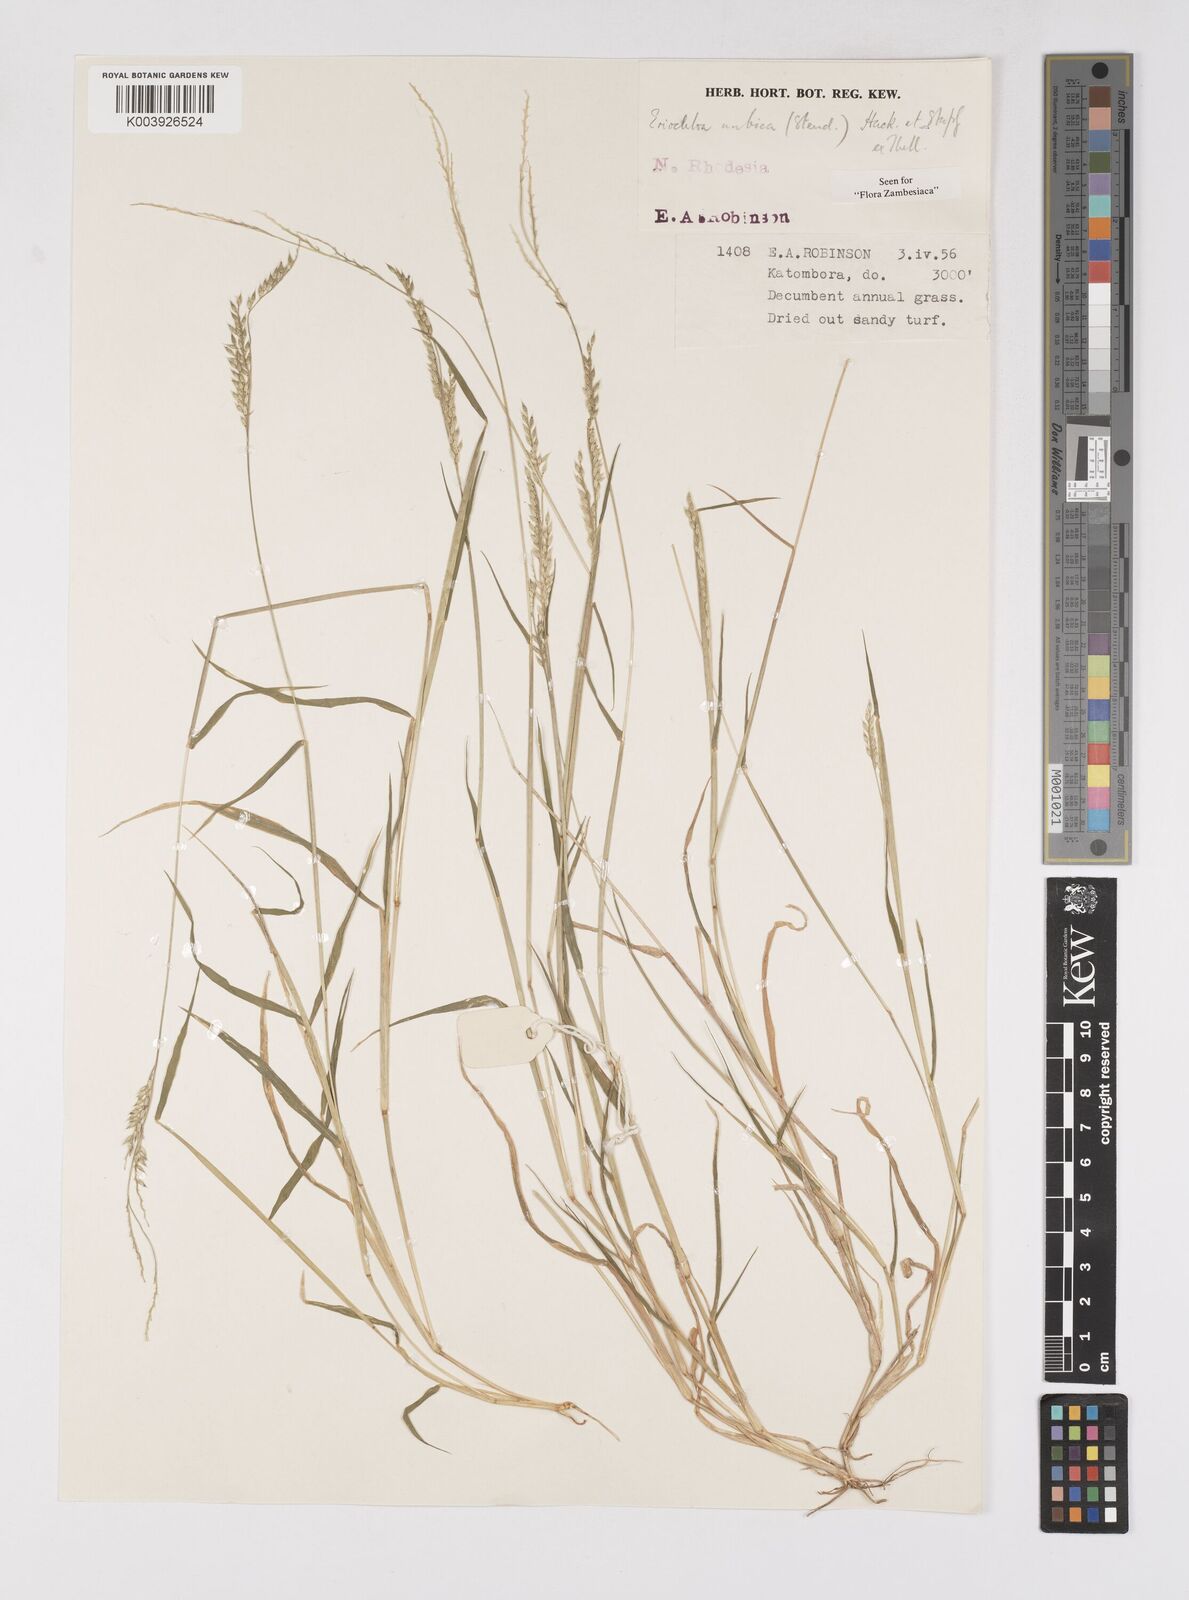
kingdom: Plantae
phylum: Tracheophyta
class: Liliopsida
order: Poales
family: Poaceae
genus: Eriochloa
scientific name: Eriochloa barbatus
